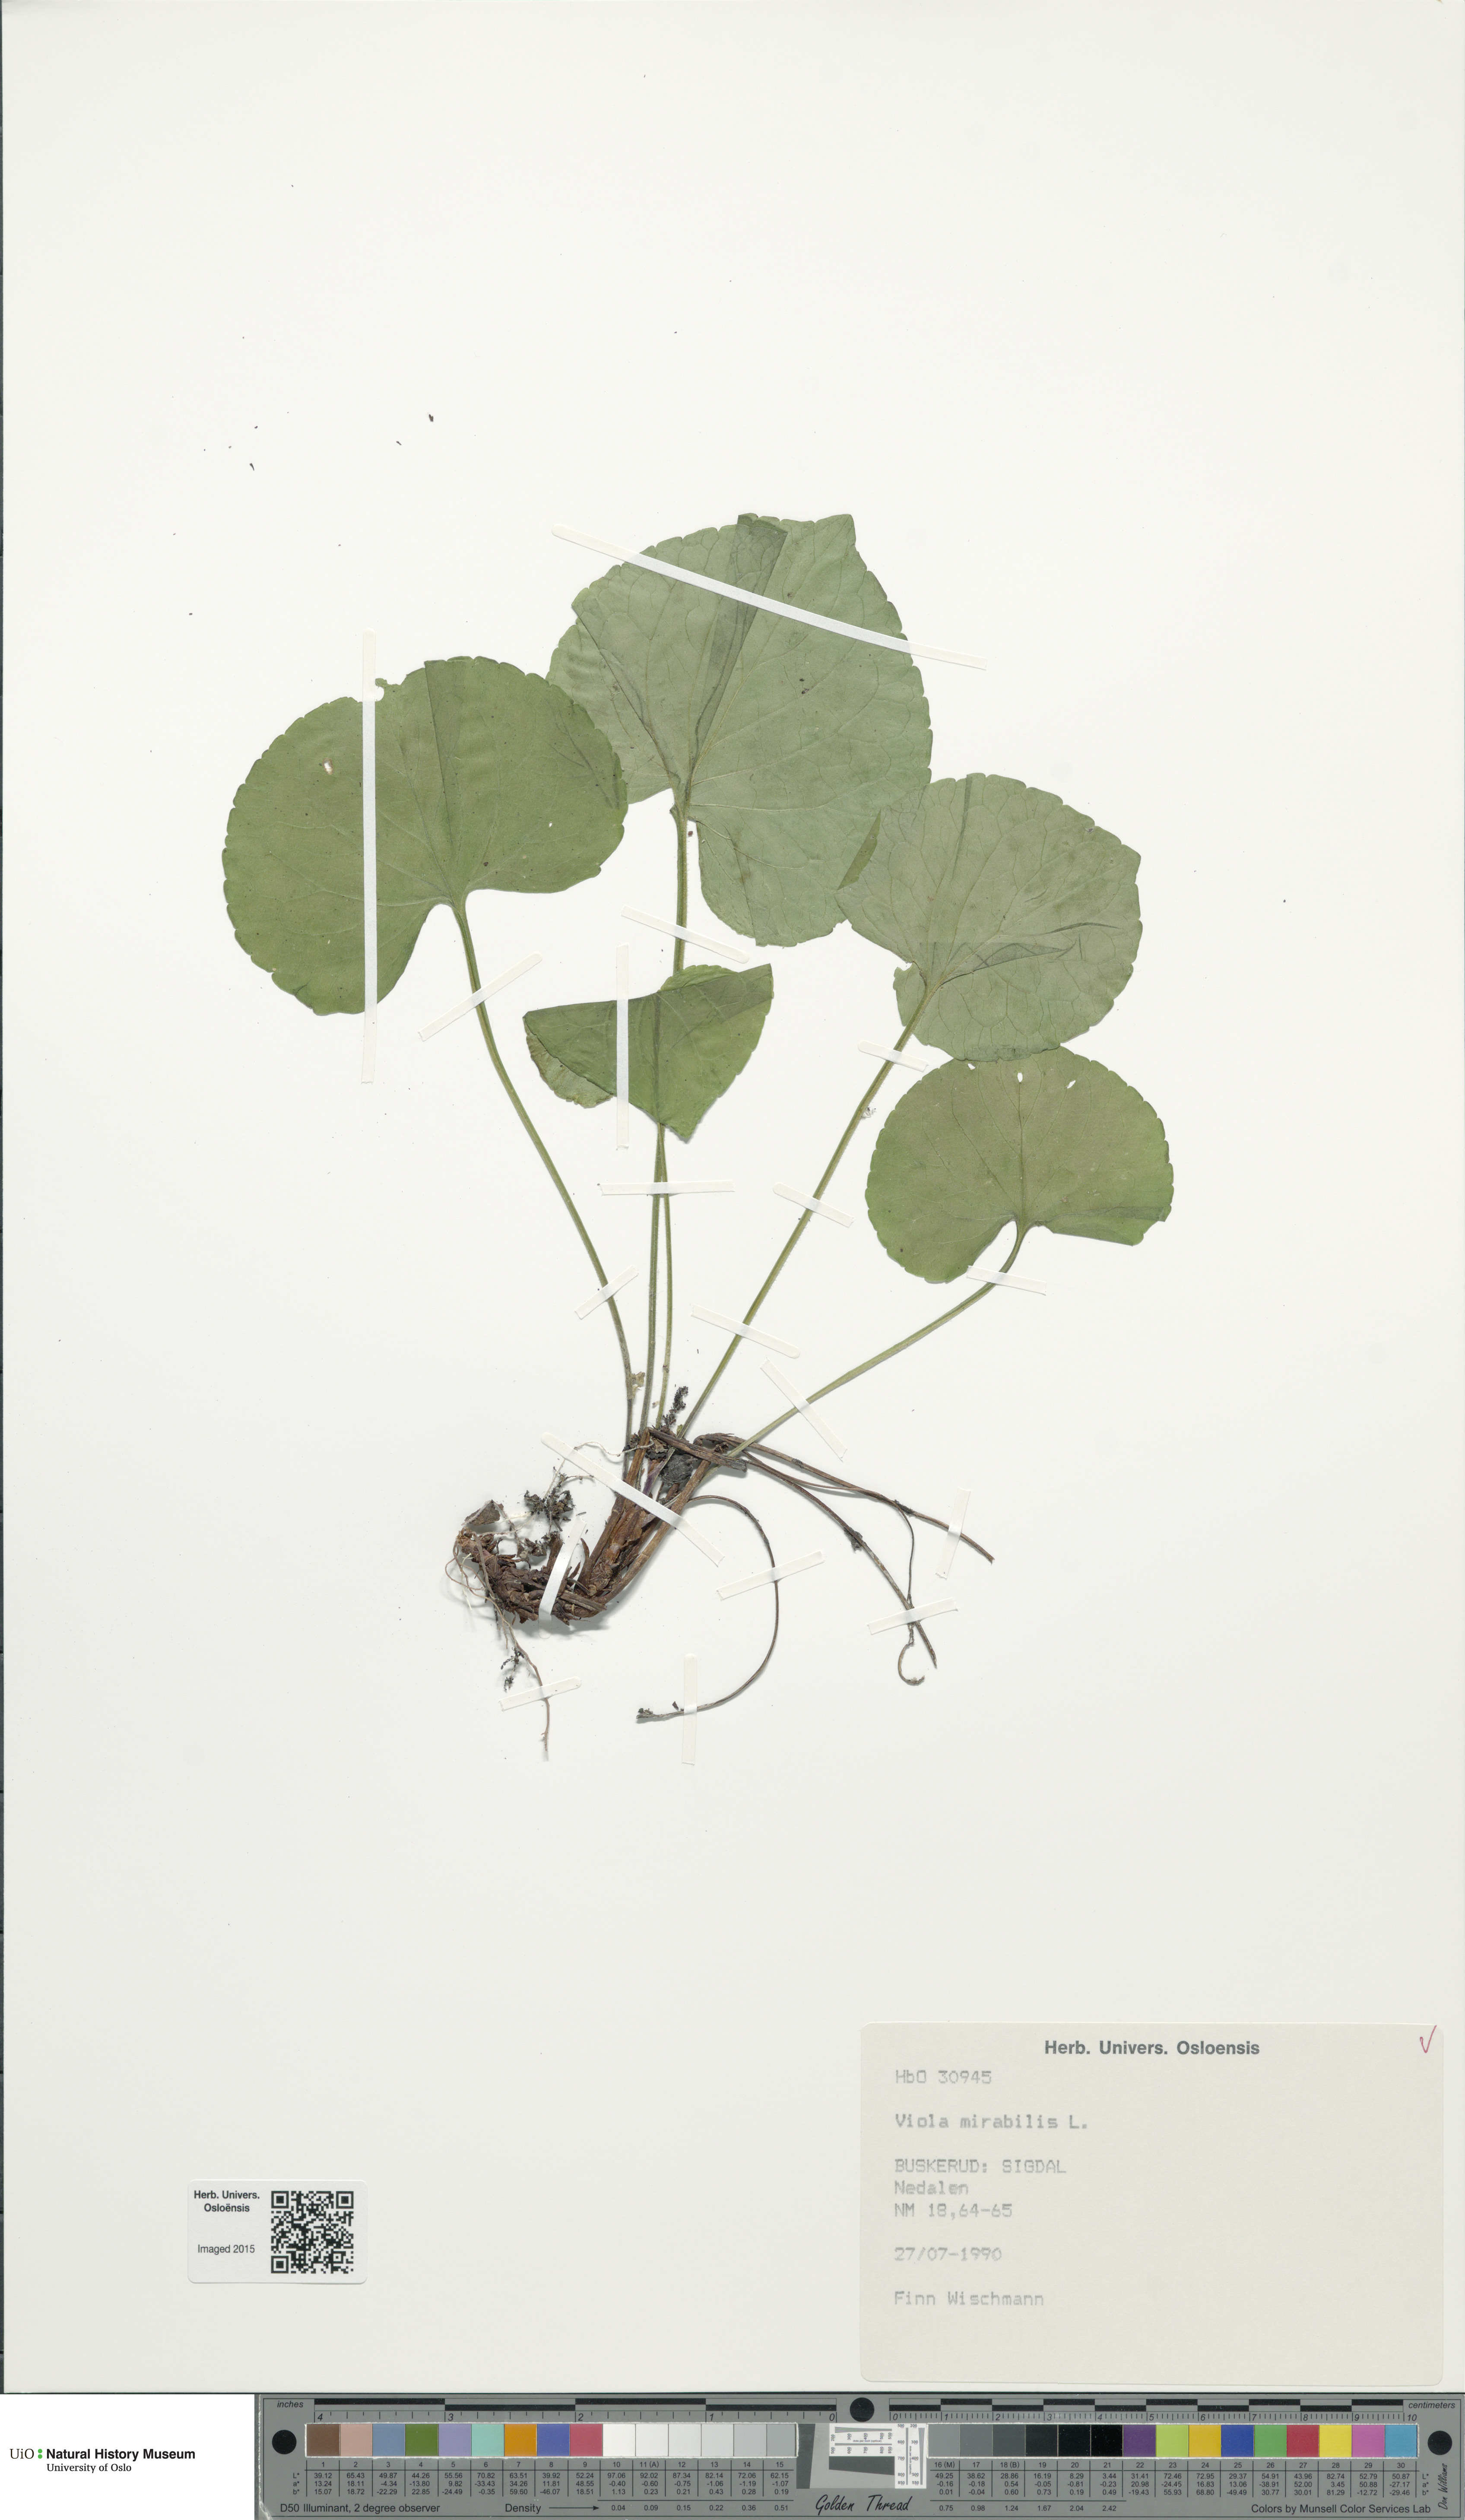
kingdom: Plantae
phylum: Tracheophyta
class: Magnoliopsida
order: Malpighiales
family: Violaceae
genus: Viola
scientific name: Viola mirabilis
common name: Wonder violet
